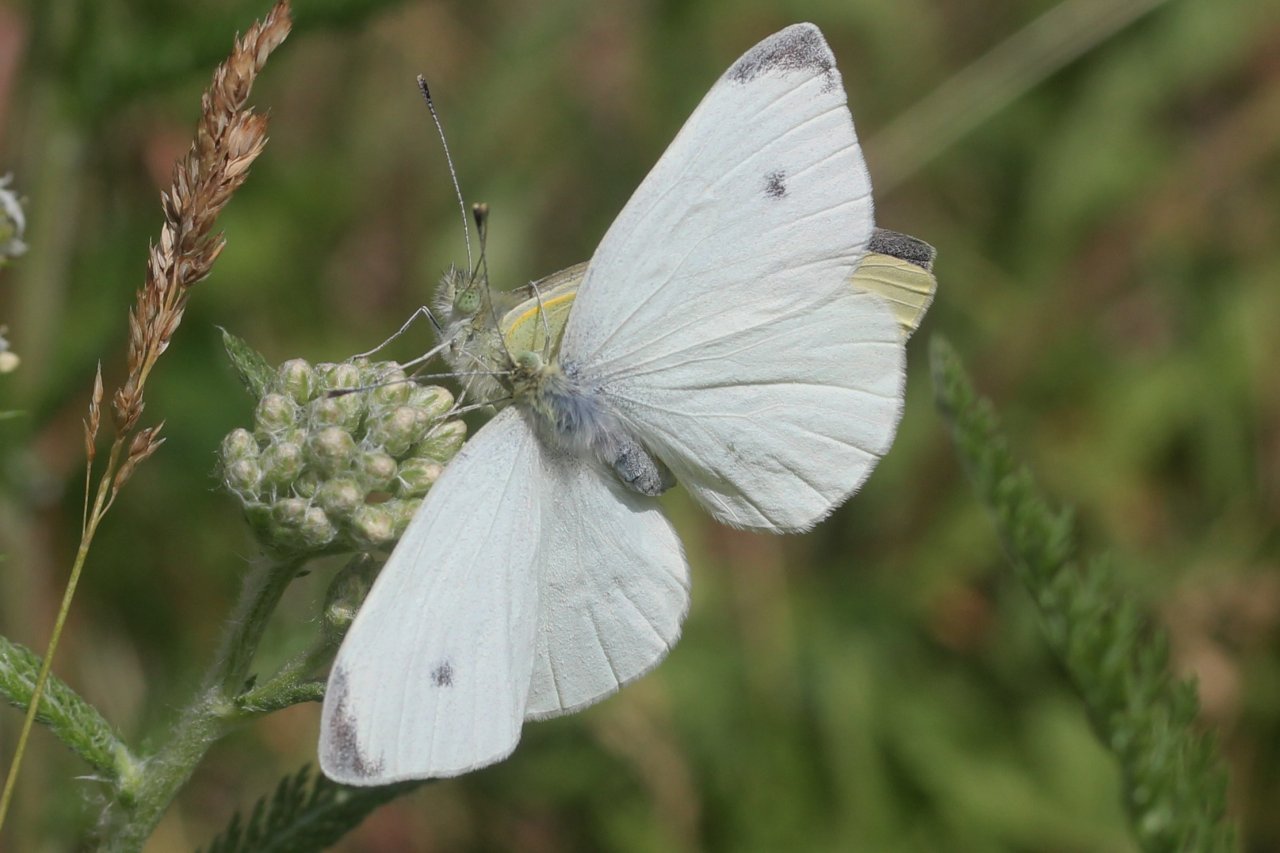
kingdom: Animalia
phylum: Arthropoda
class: Insecta
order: Lepidoptera
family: Pieridae
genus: Pieris
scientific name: Pieris rapae
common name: Cabbage White
